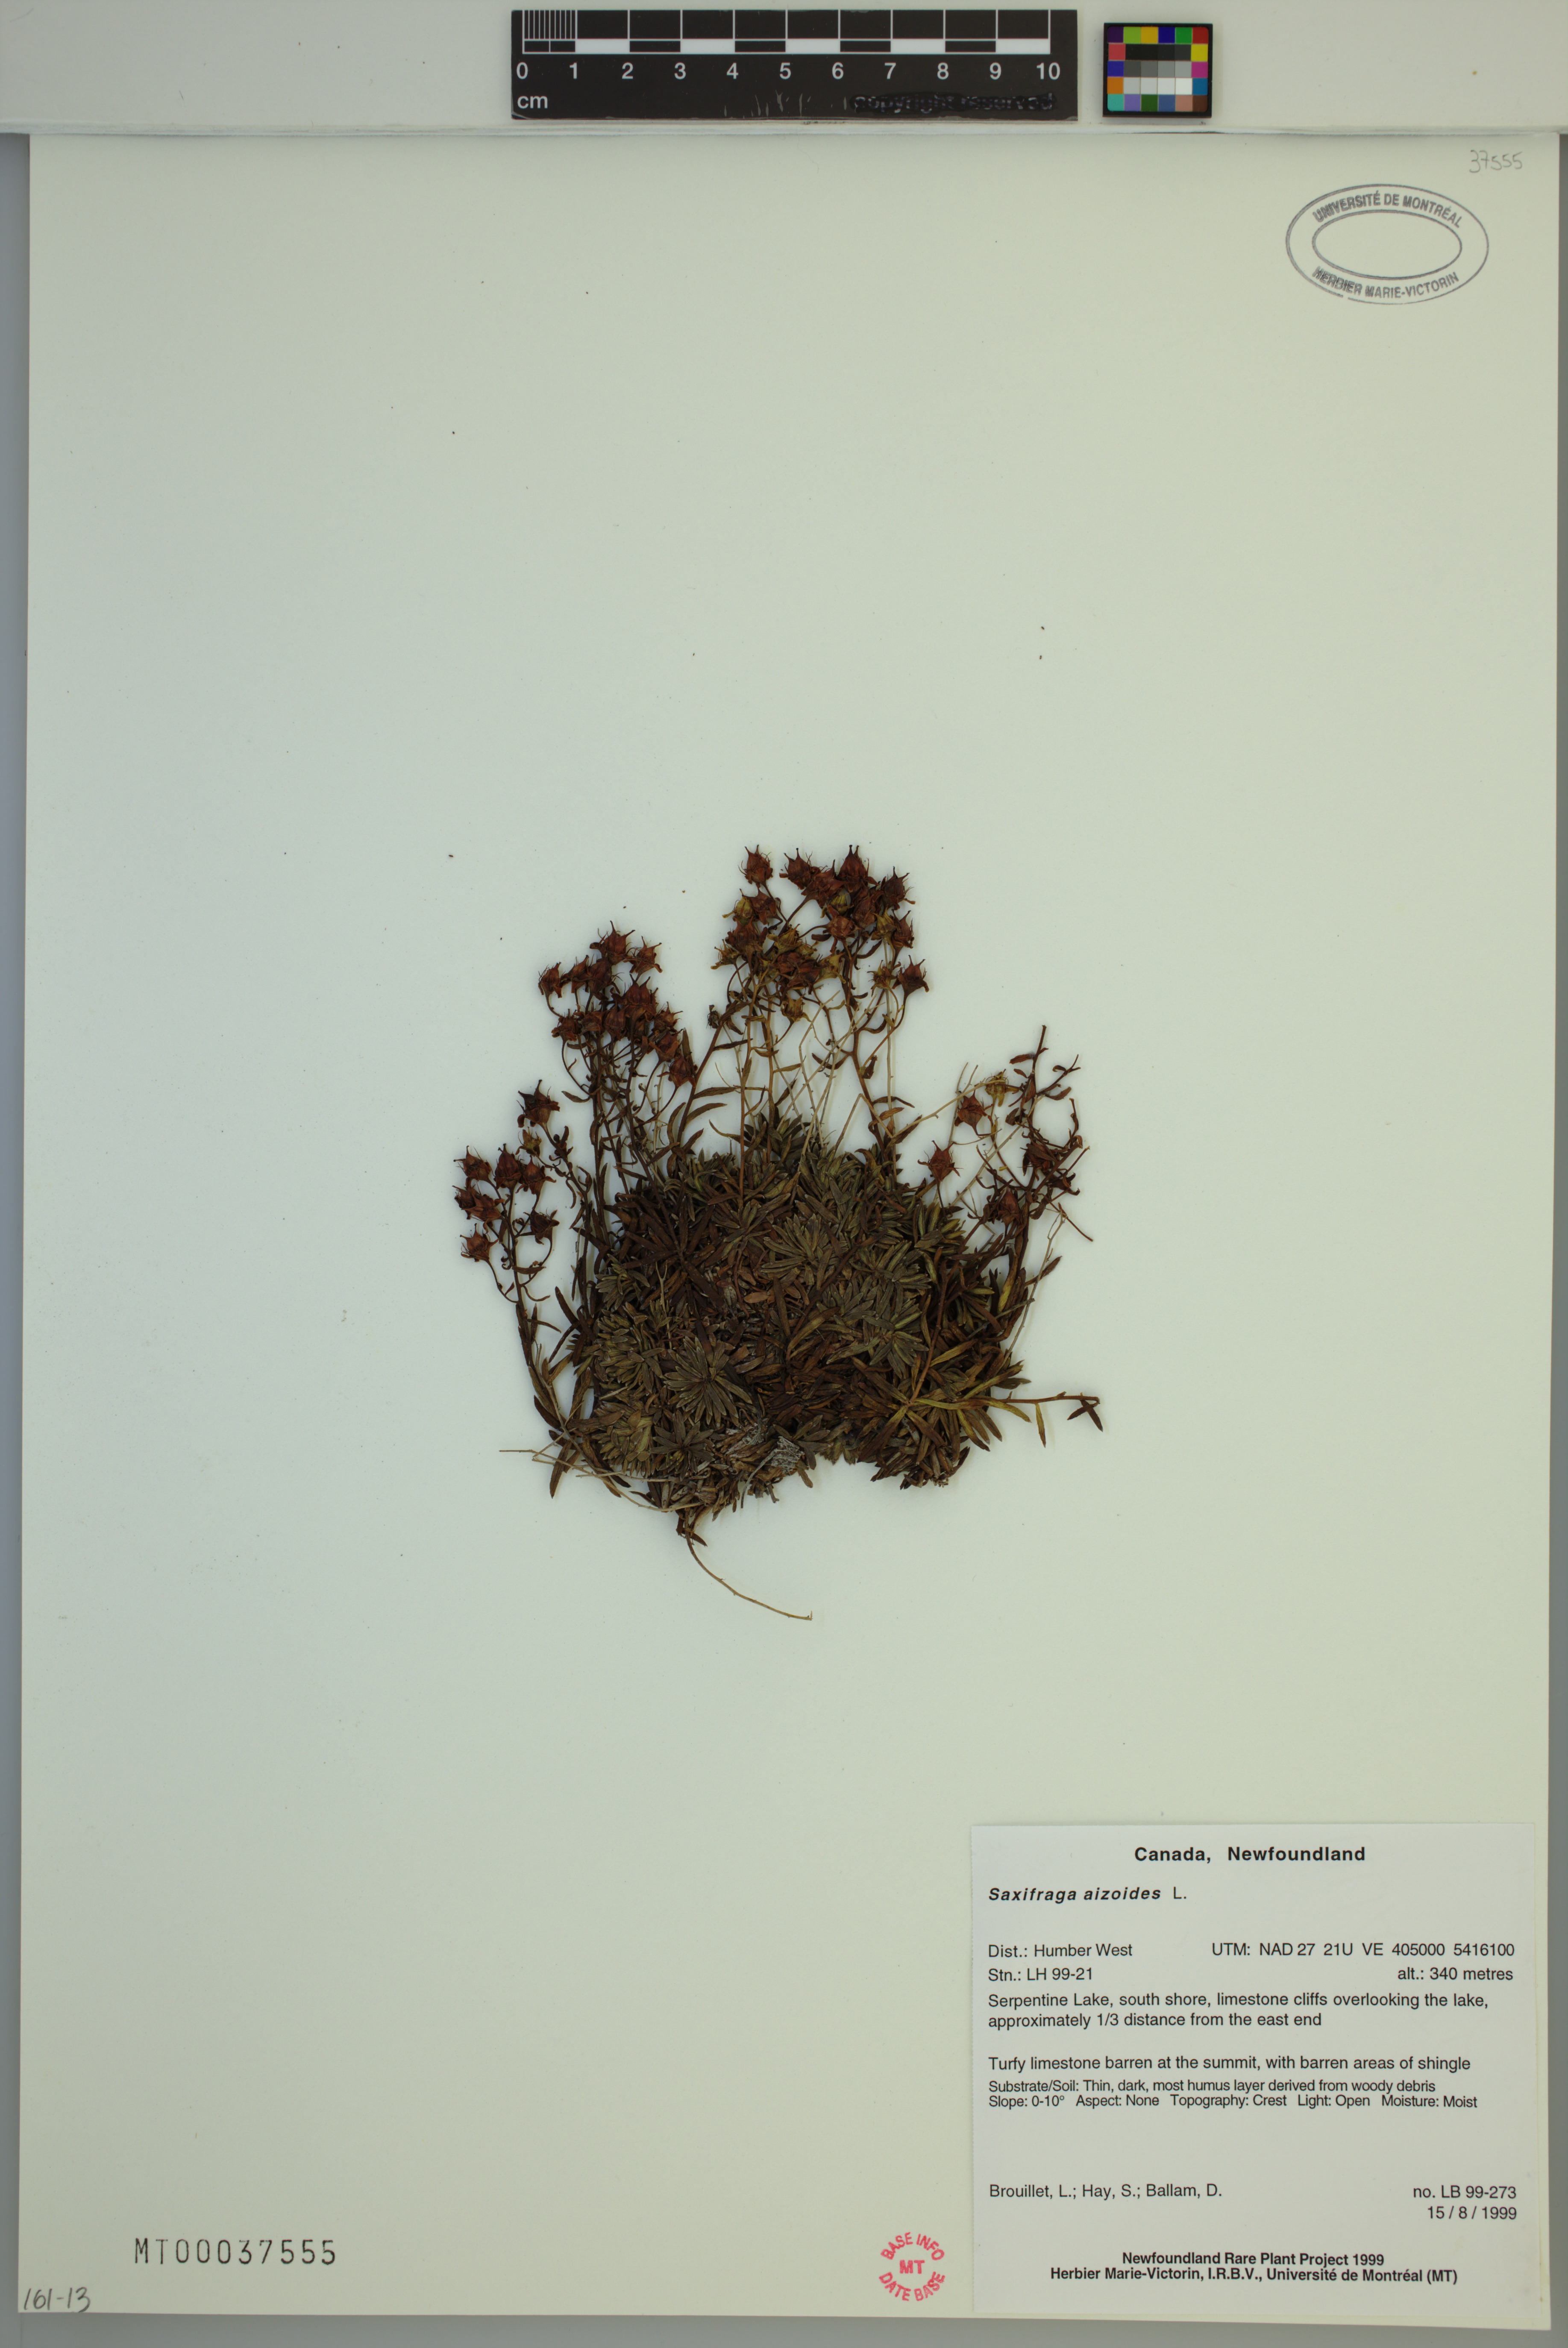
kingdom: Plantae
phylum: Tracheophyta
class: Magnoliopsida
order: Saxifragales
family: Saxifragaceae
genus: Saxifraga
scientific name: Saxifraga aizoides
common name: Yellow mountain saxifrage
